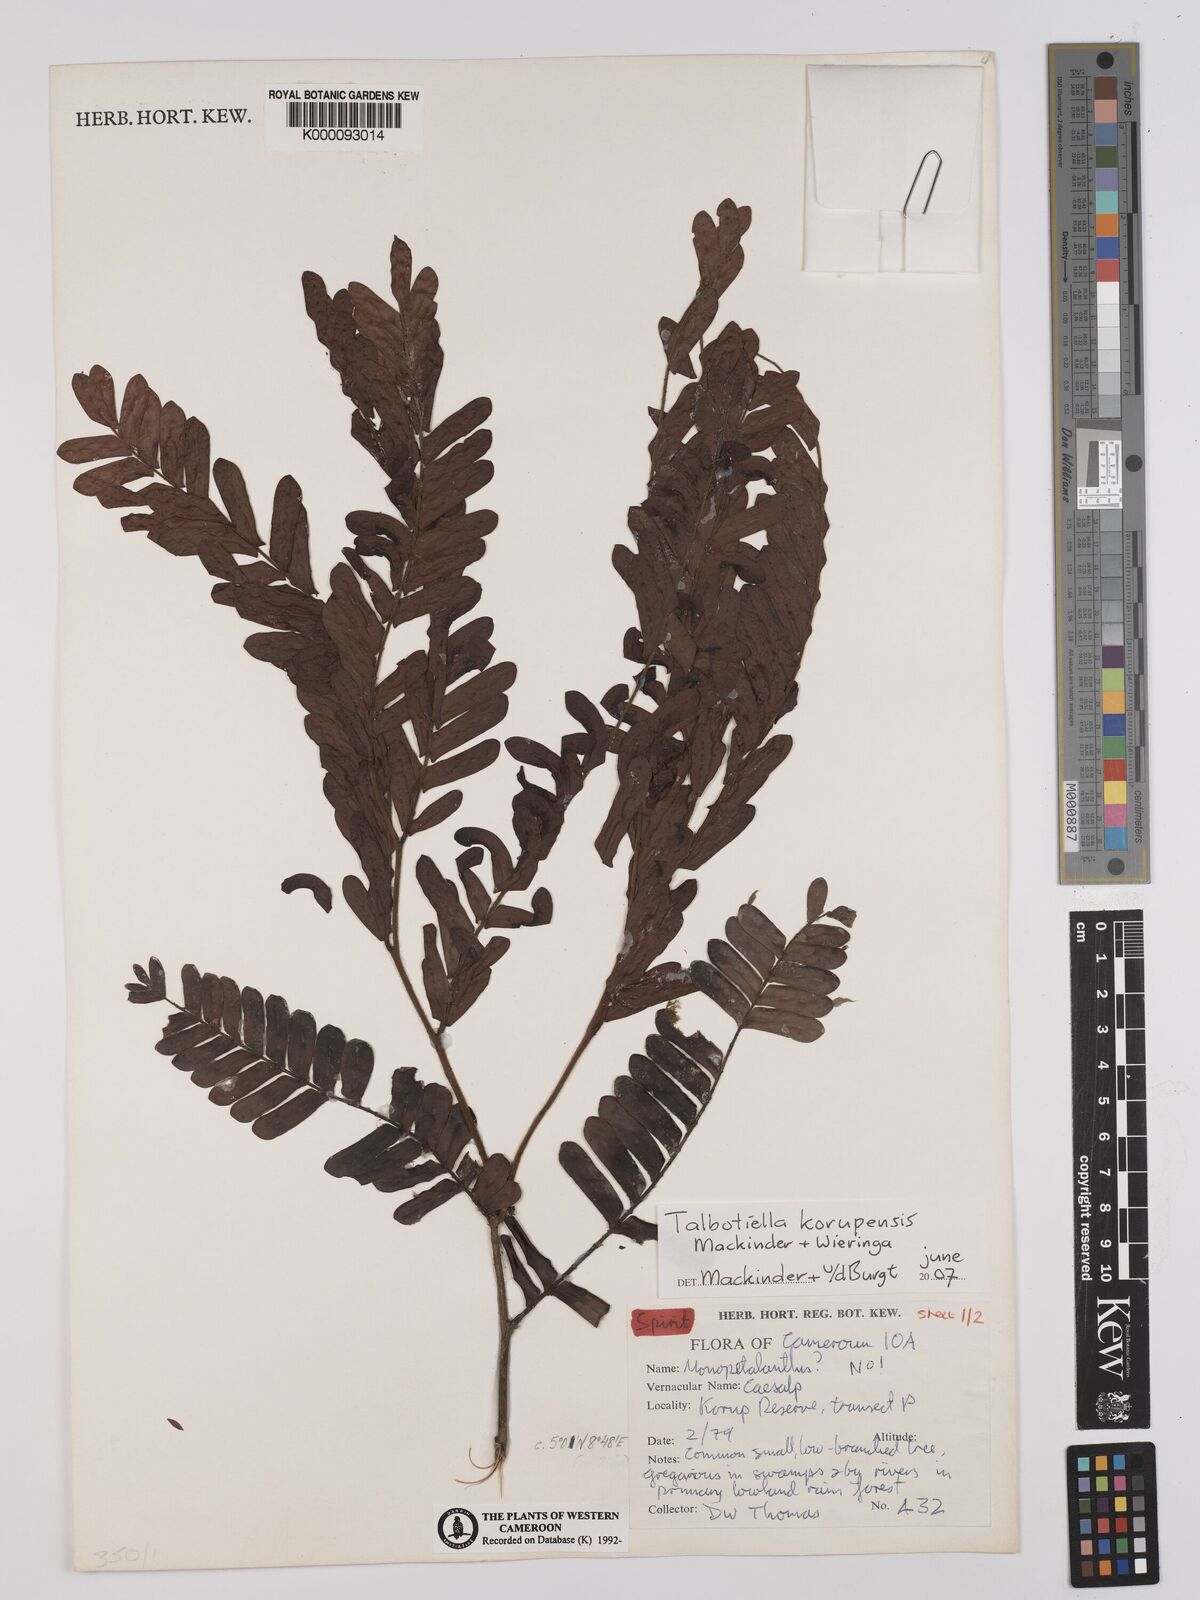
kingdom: Plantae
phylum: Tracheophyta
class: Magnoliopsida
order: Fabales
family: Fabaceae
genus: Talbotiella
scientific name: Talbotiella korupensis
